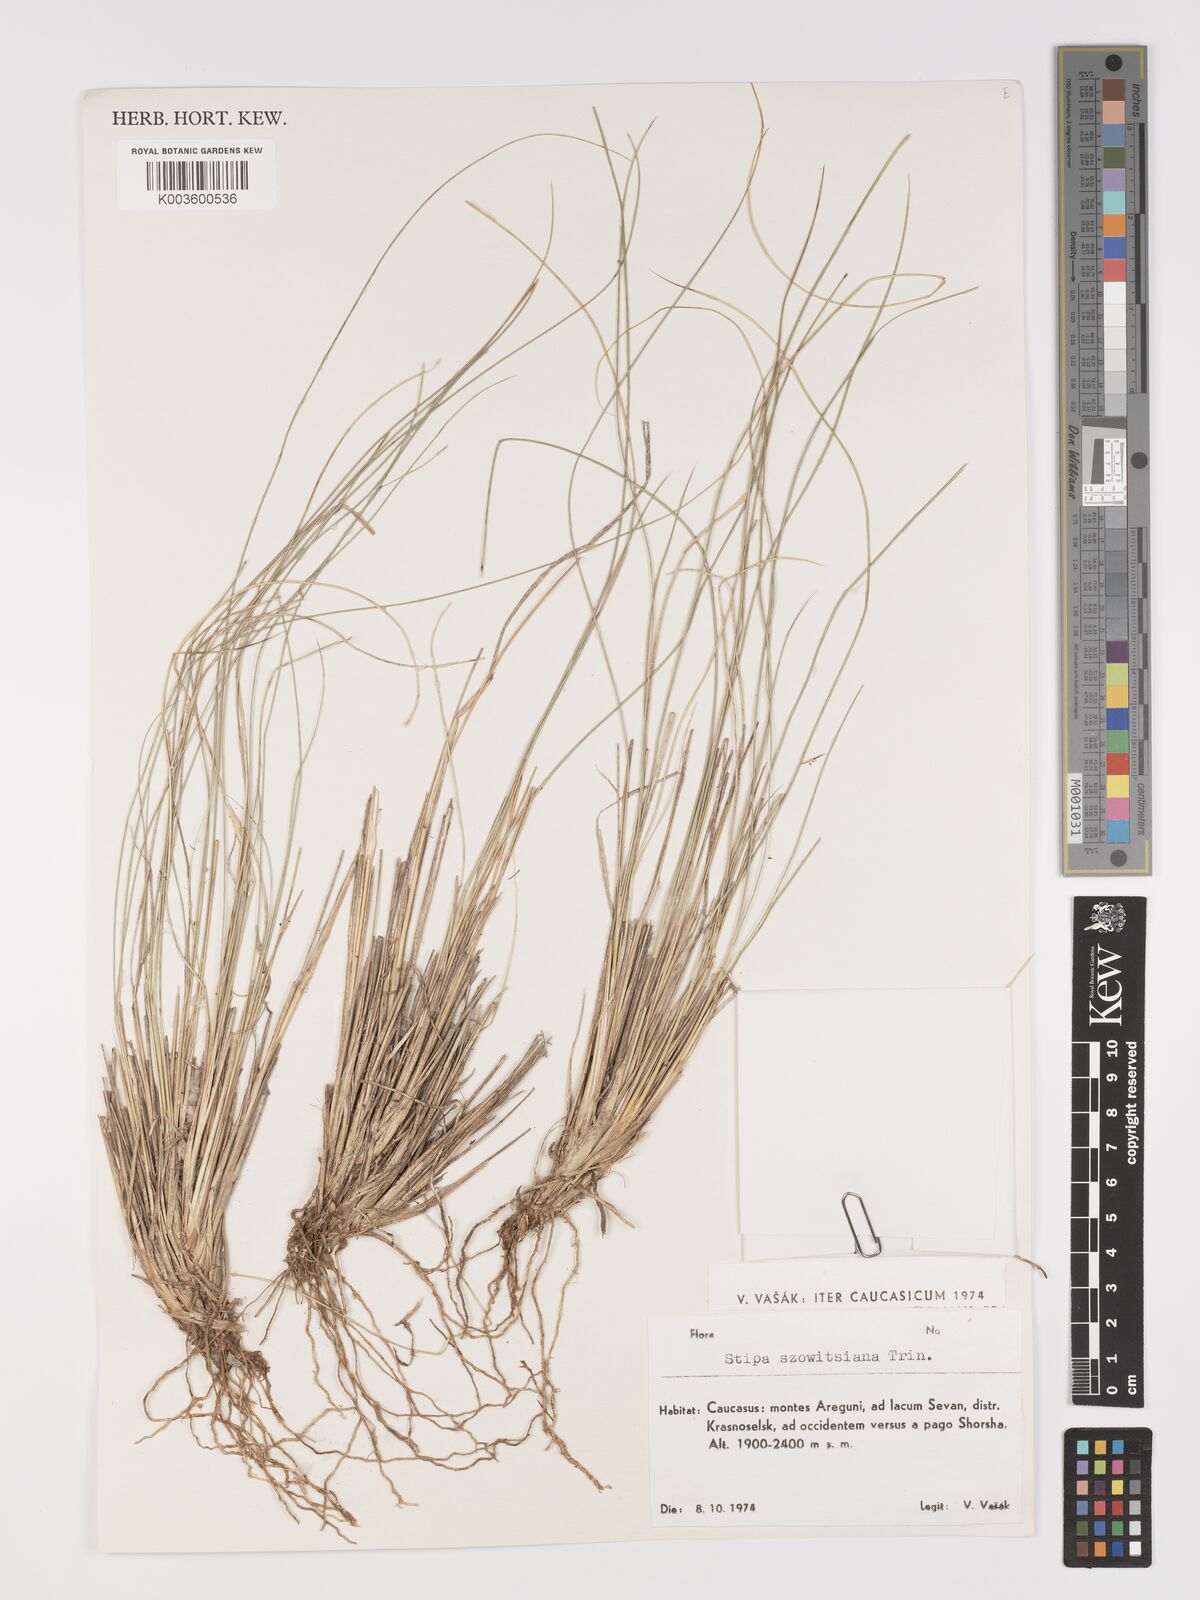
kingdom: Plantae
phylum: Tracheophyta
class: Liliopsida
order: Poales
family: Poaceae
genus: Stipa
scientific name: Stipa barbata
